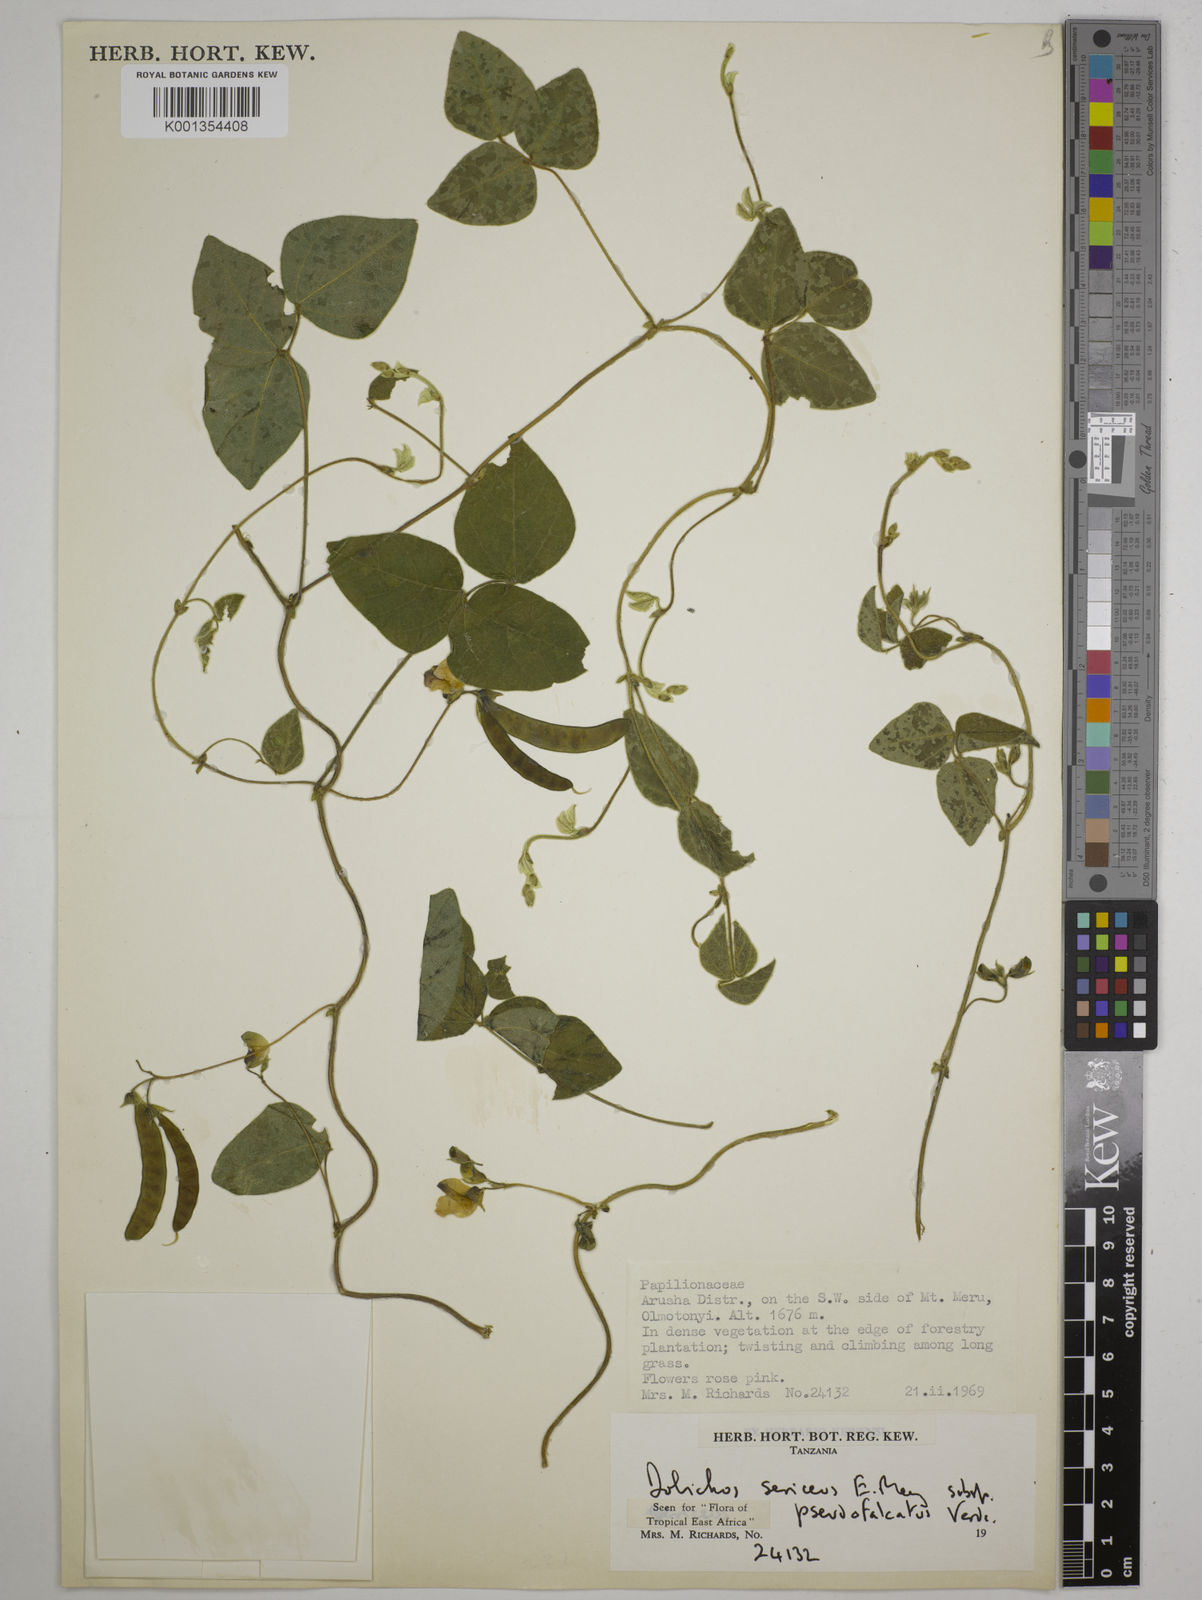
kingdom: Plantae
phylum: Tracheophyta
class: Magnoliopsida
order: Fabales
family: Fabaceae
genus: Dolichos
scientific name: Dolichos
